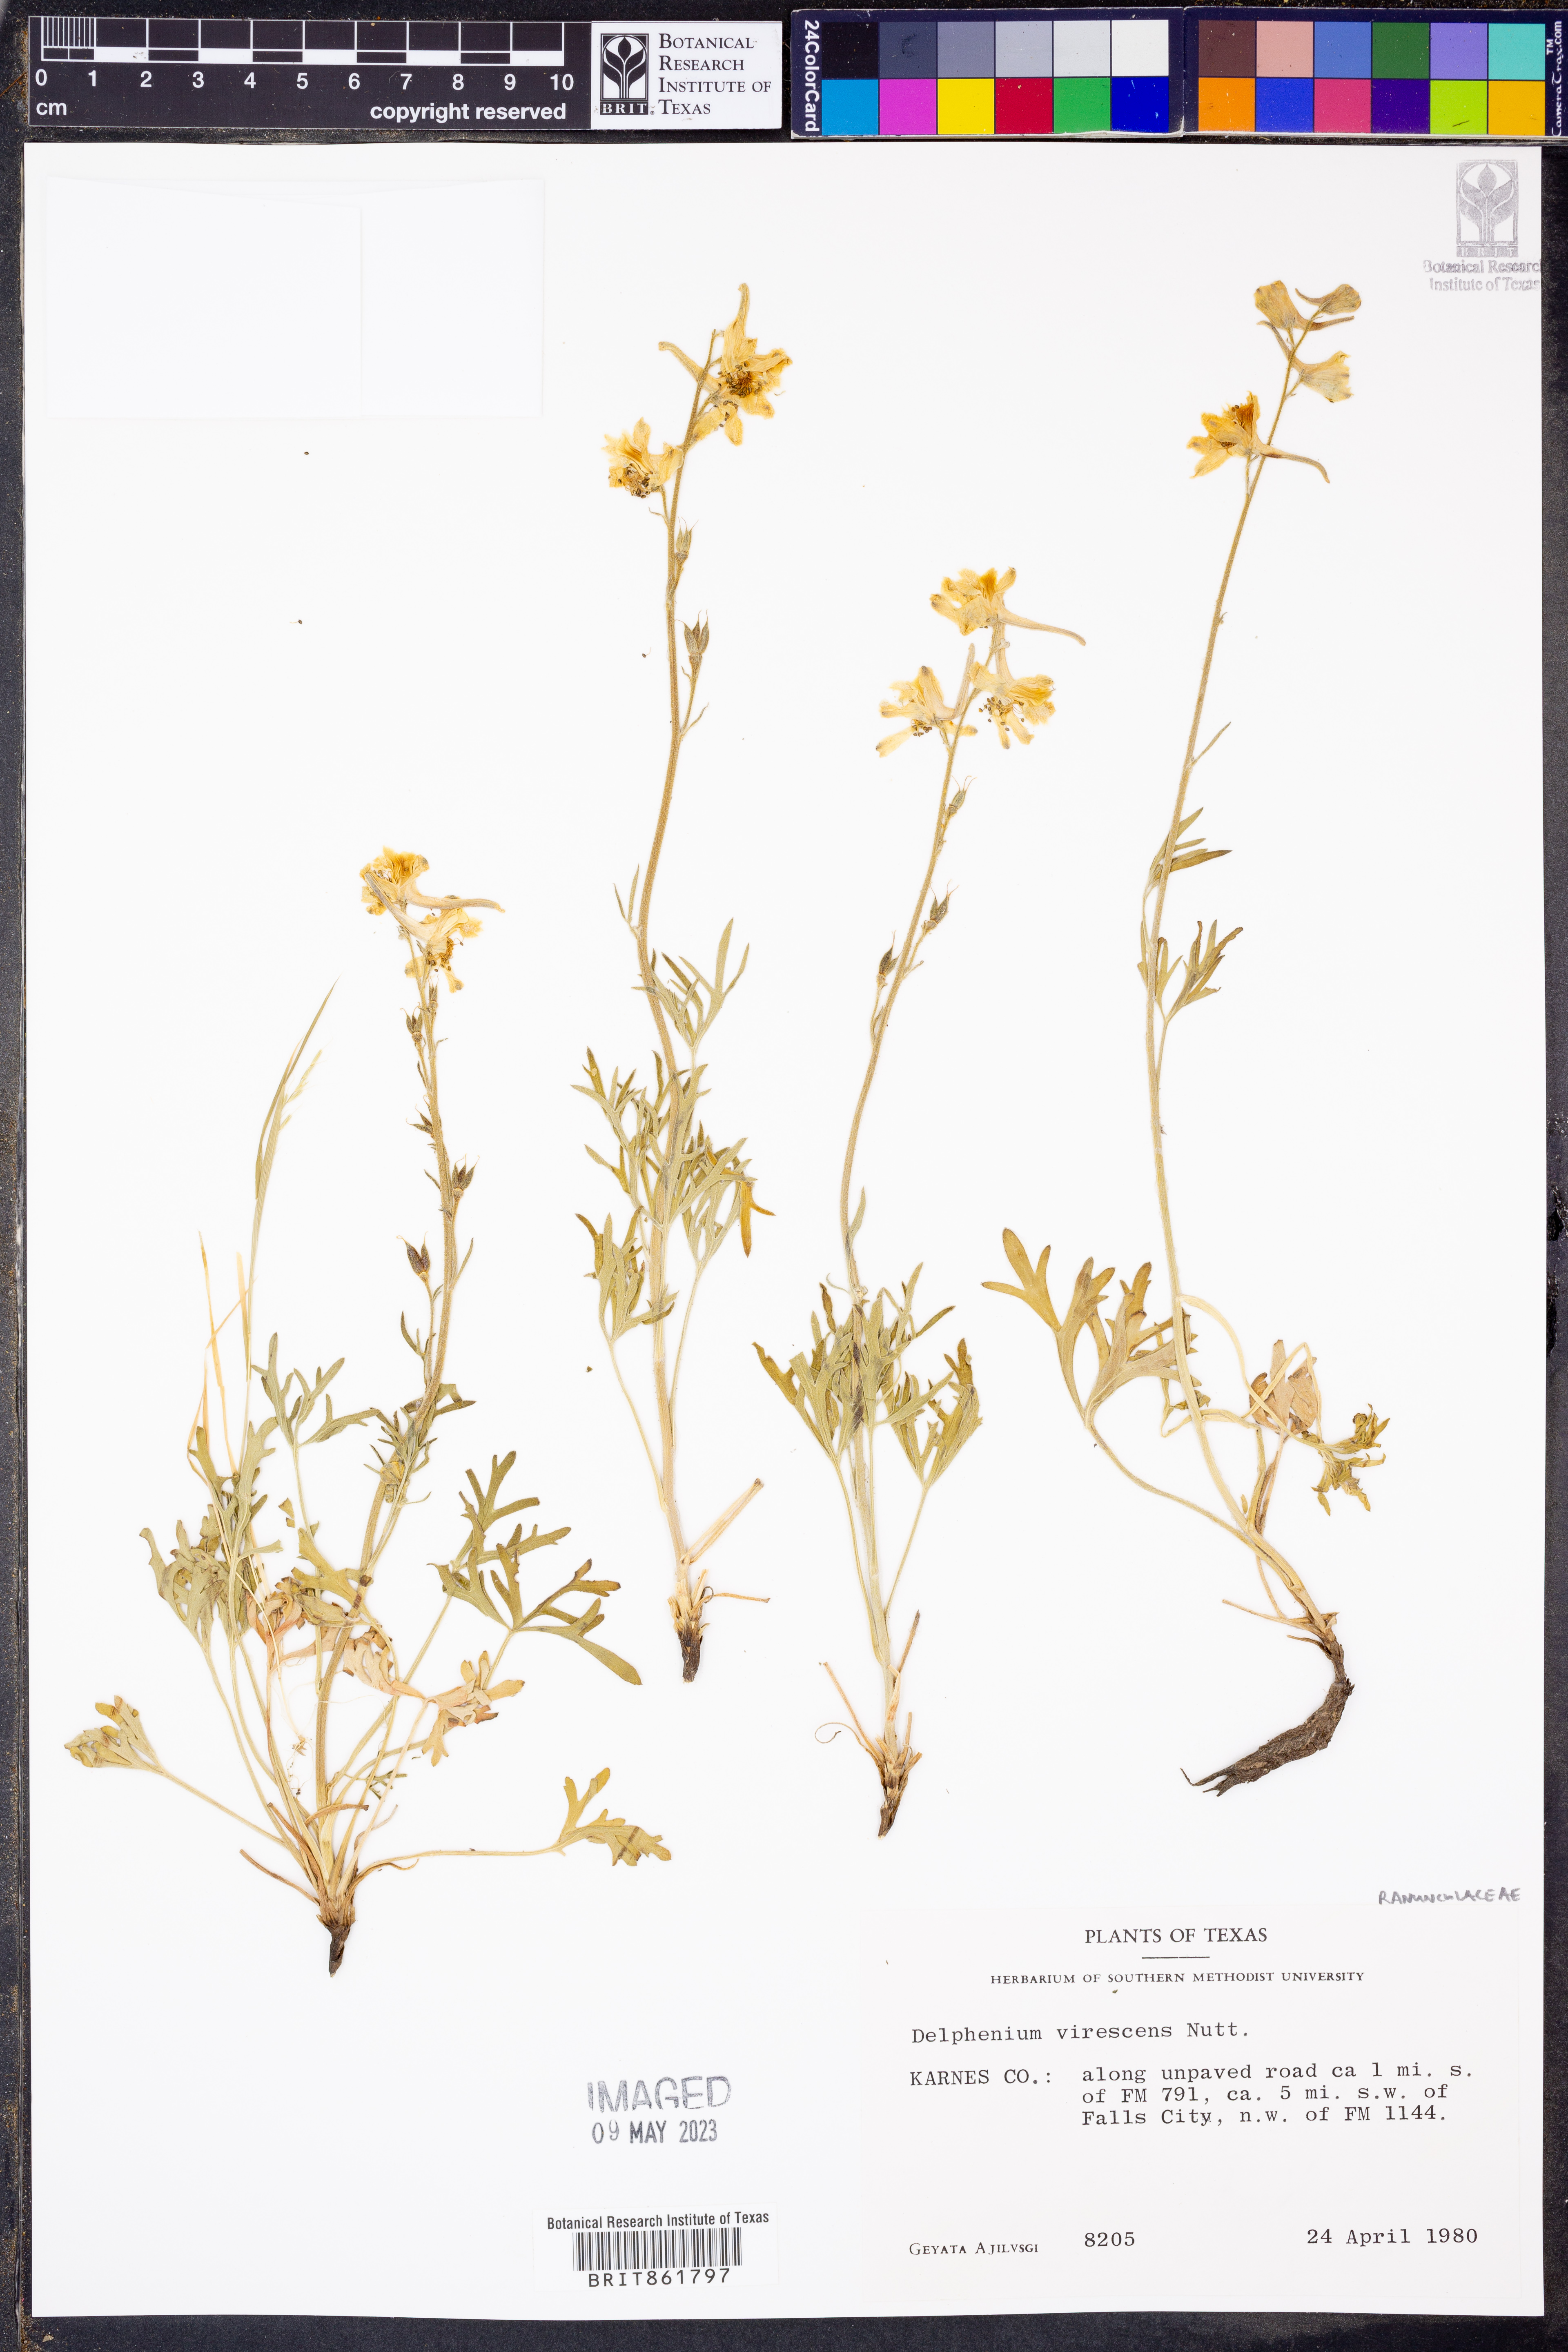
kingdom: Plantae
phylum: Tracheophyta
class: Magnoliopsida
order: Ranunculales
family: Ranunculaceae
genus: Delphinium
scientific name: Delphinium carolinianum
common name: Carolina larkspur
